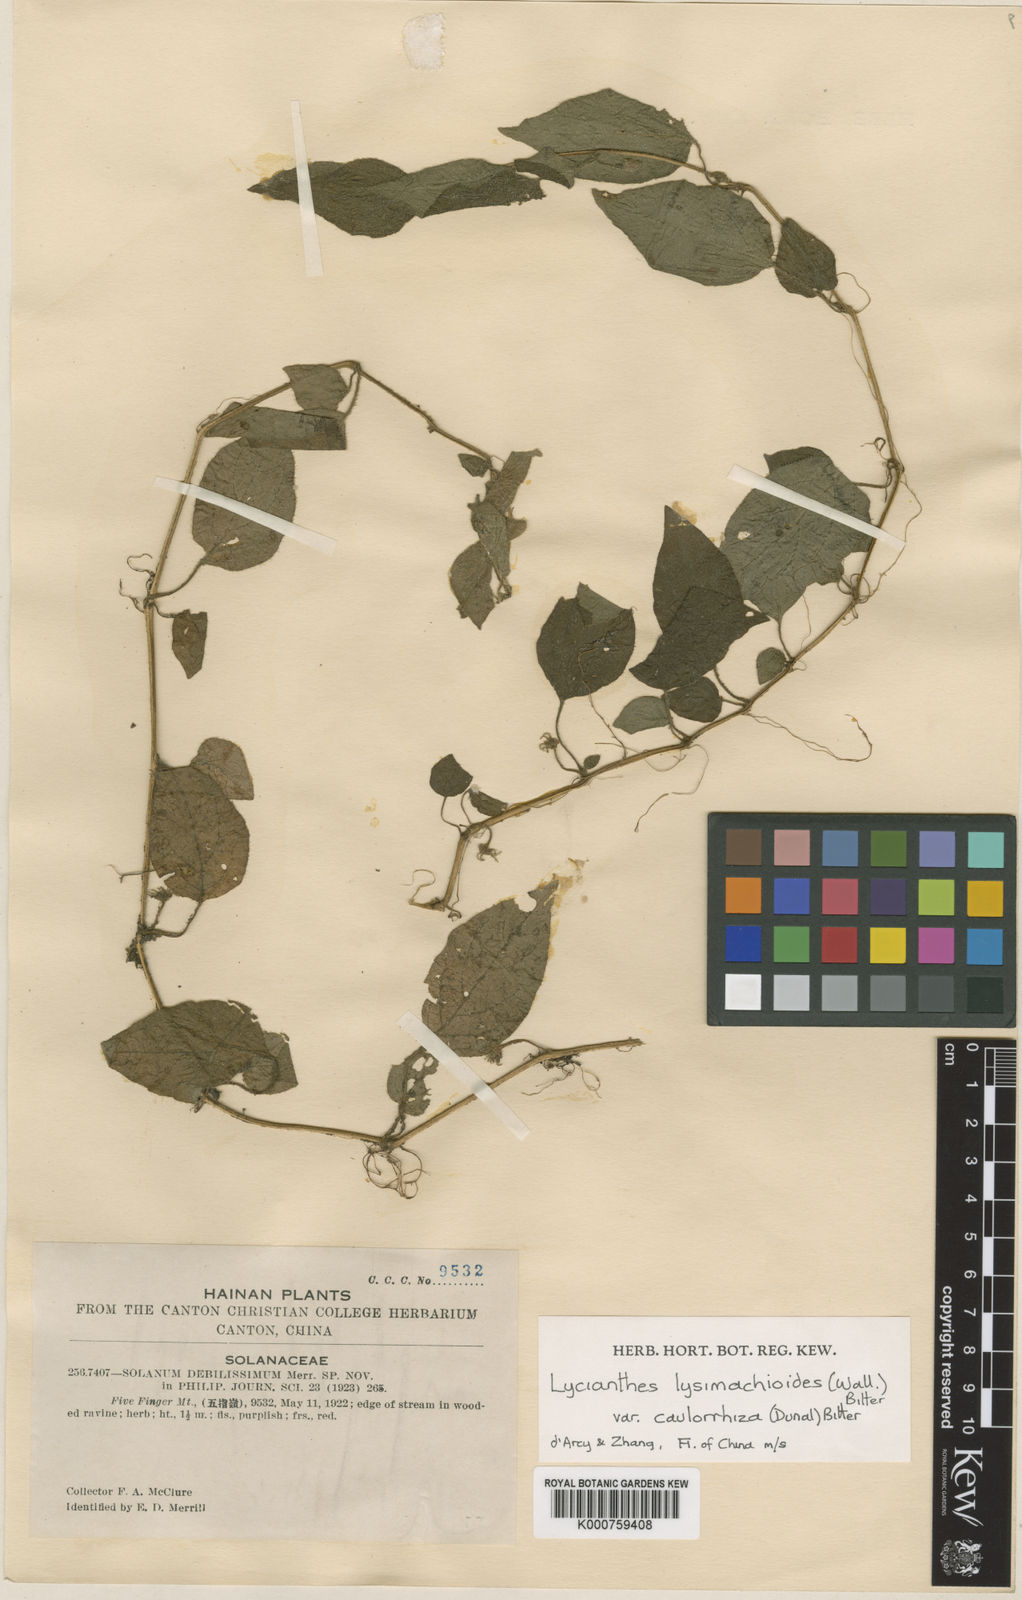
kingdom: Plantae
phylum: Tracheophyta
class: Magnoliopsida
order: Solanales
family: Solanaceae
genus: Lycianthes
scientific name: Lycianthes lysimachioides
